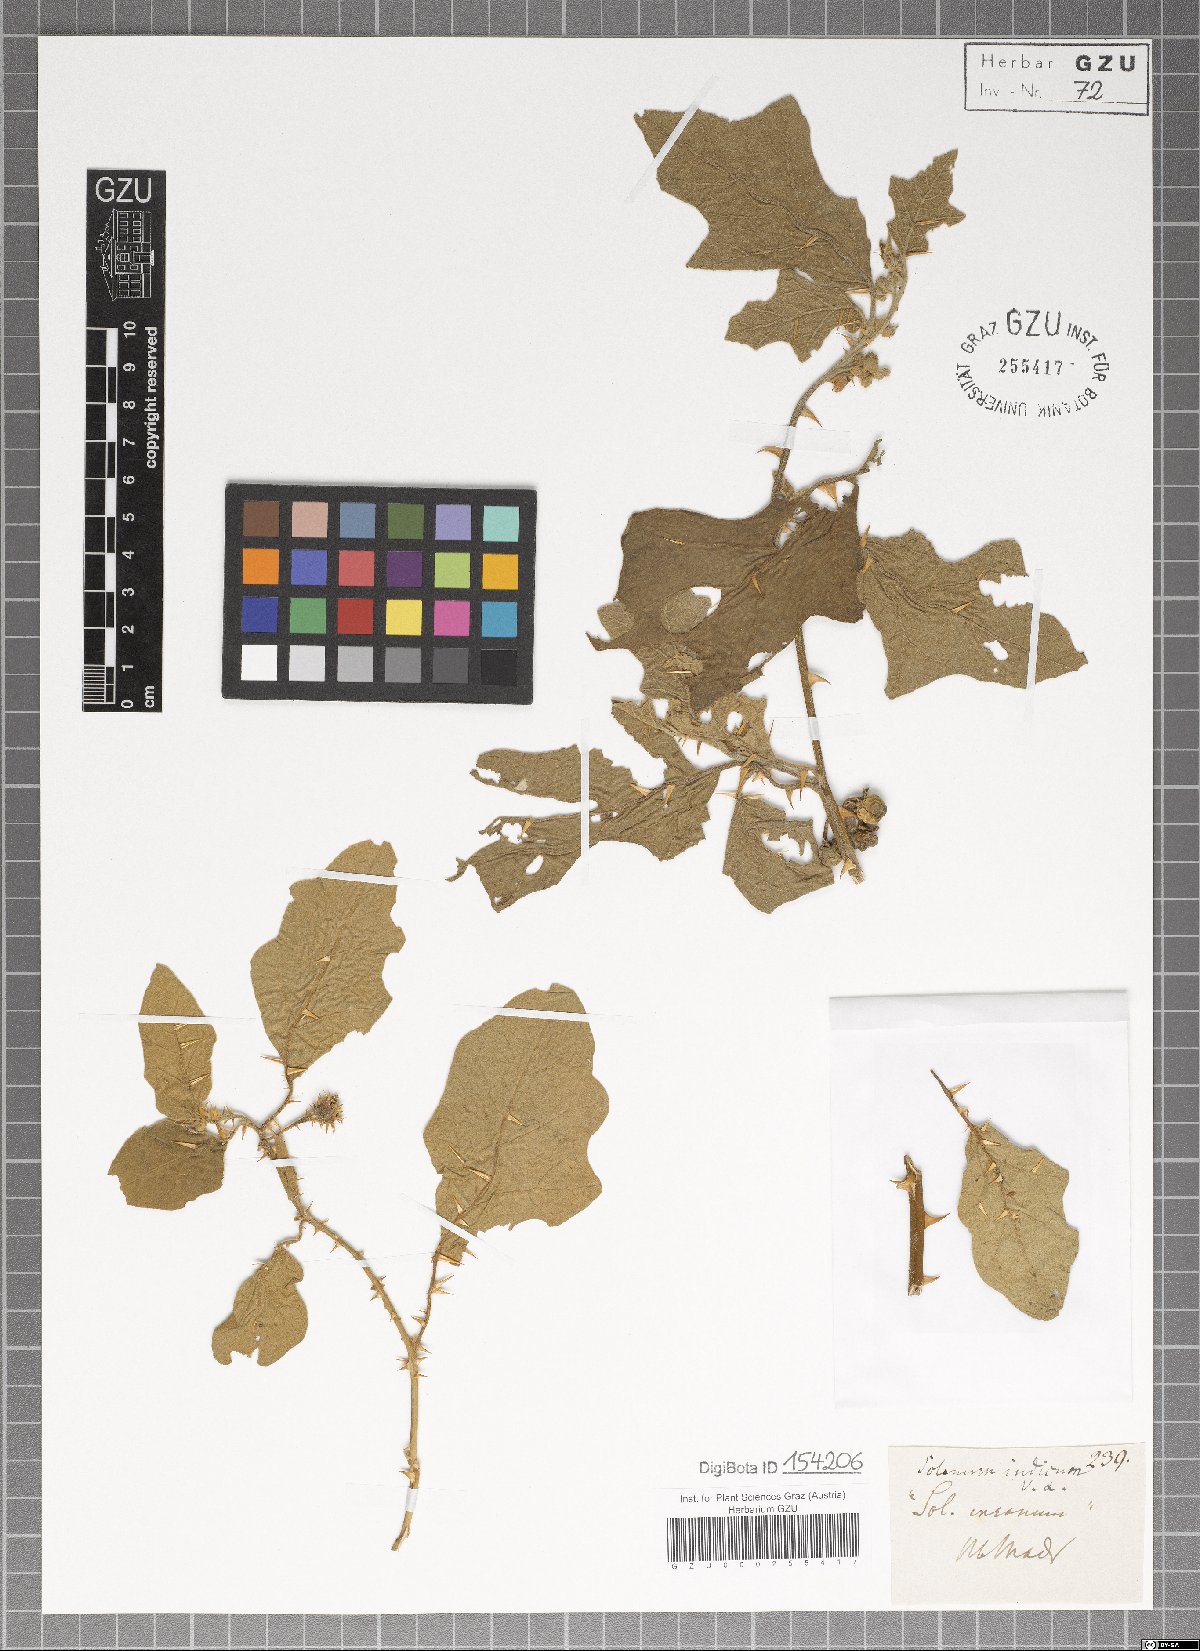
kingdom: Plantae
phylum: Tracheophyta
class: Magnoliopsida
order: Solanales
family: Solanaceae
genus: Solanum
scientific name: Solanum violaceum
